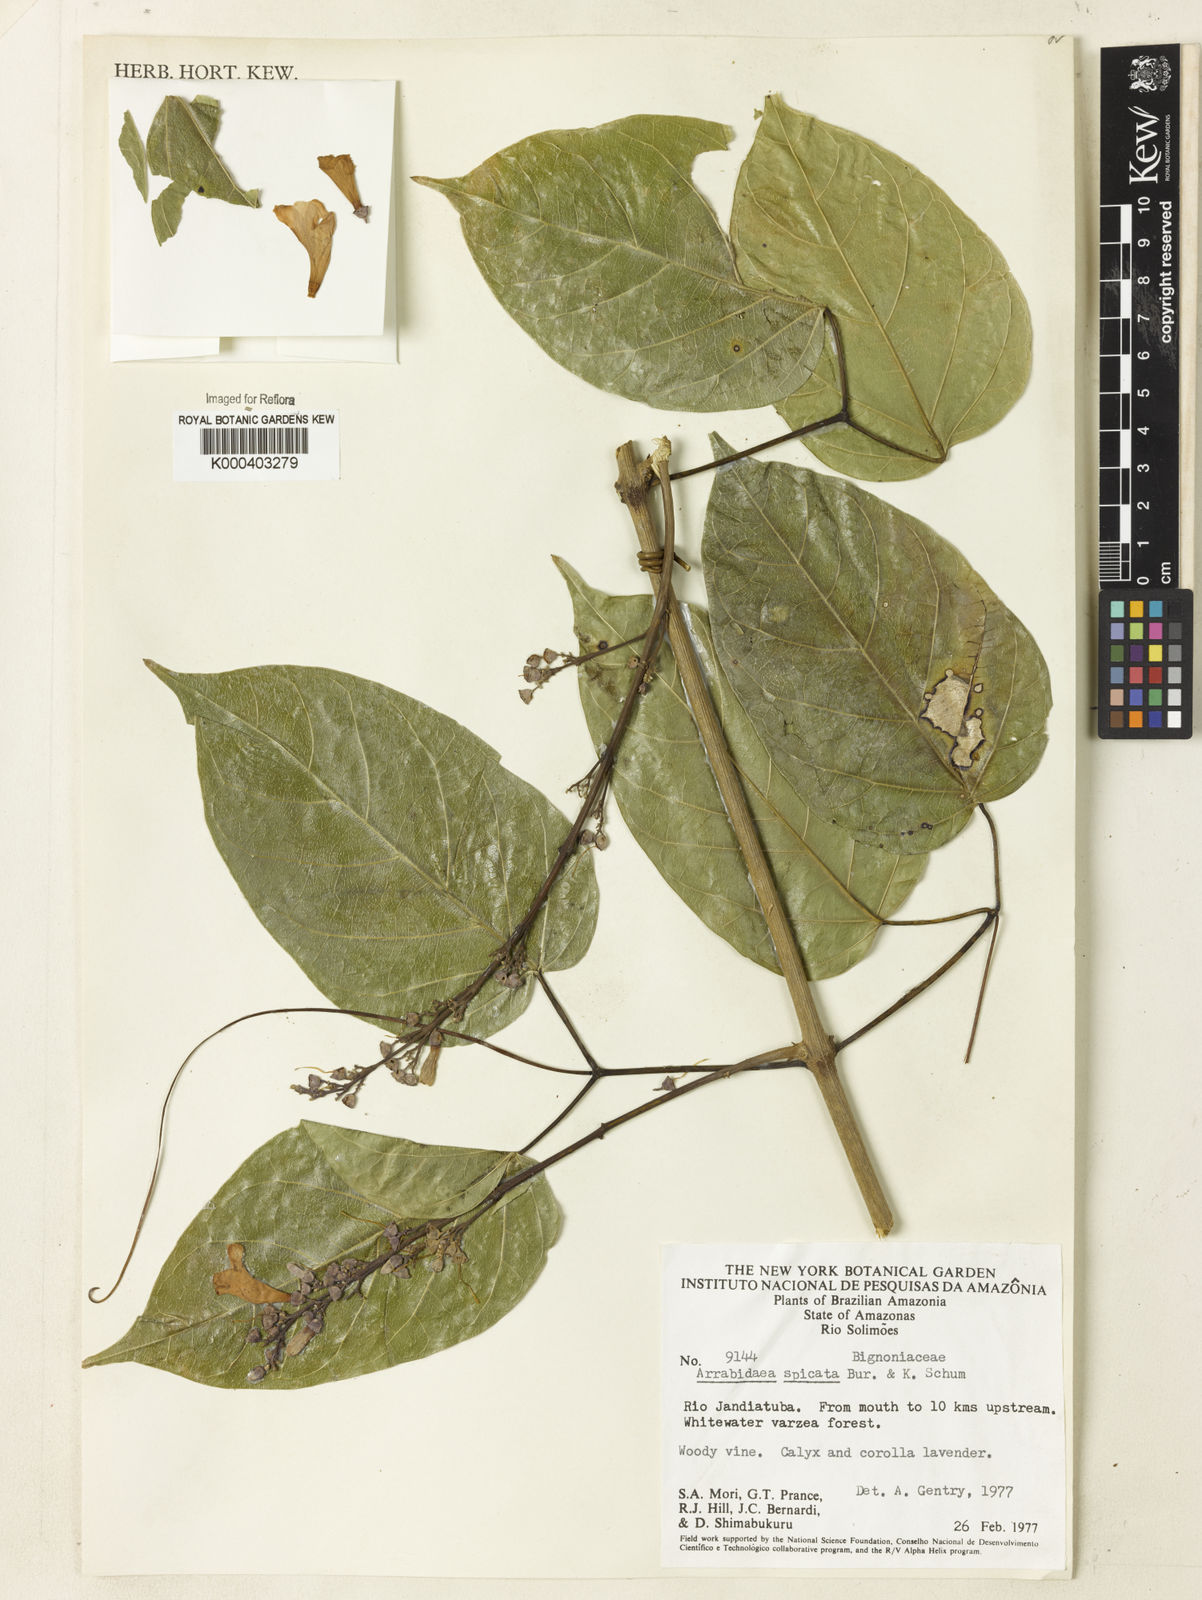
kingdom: Plantae
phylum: Tracheophyta
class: Magnoliopsida
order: Lamiales
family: Bignoniaceae
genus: Fridericia
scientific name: Fridericia spicata
